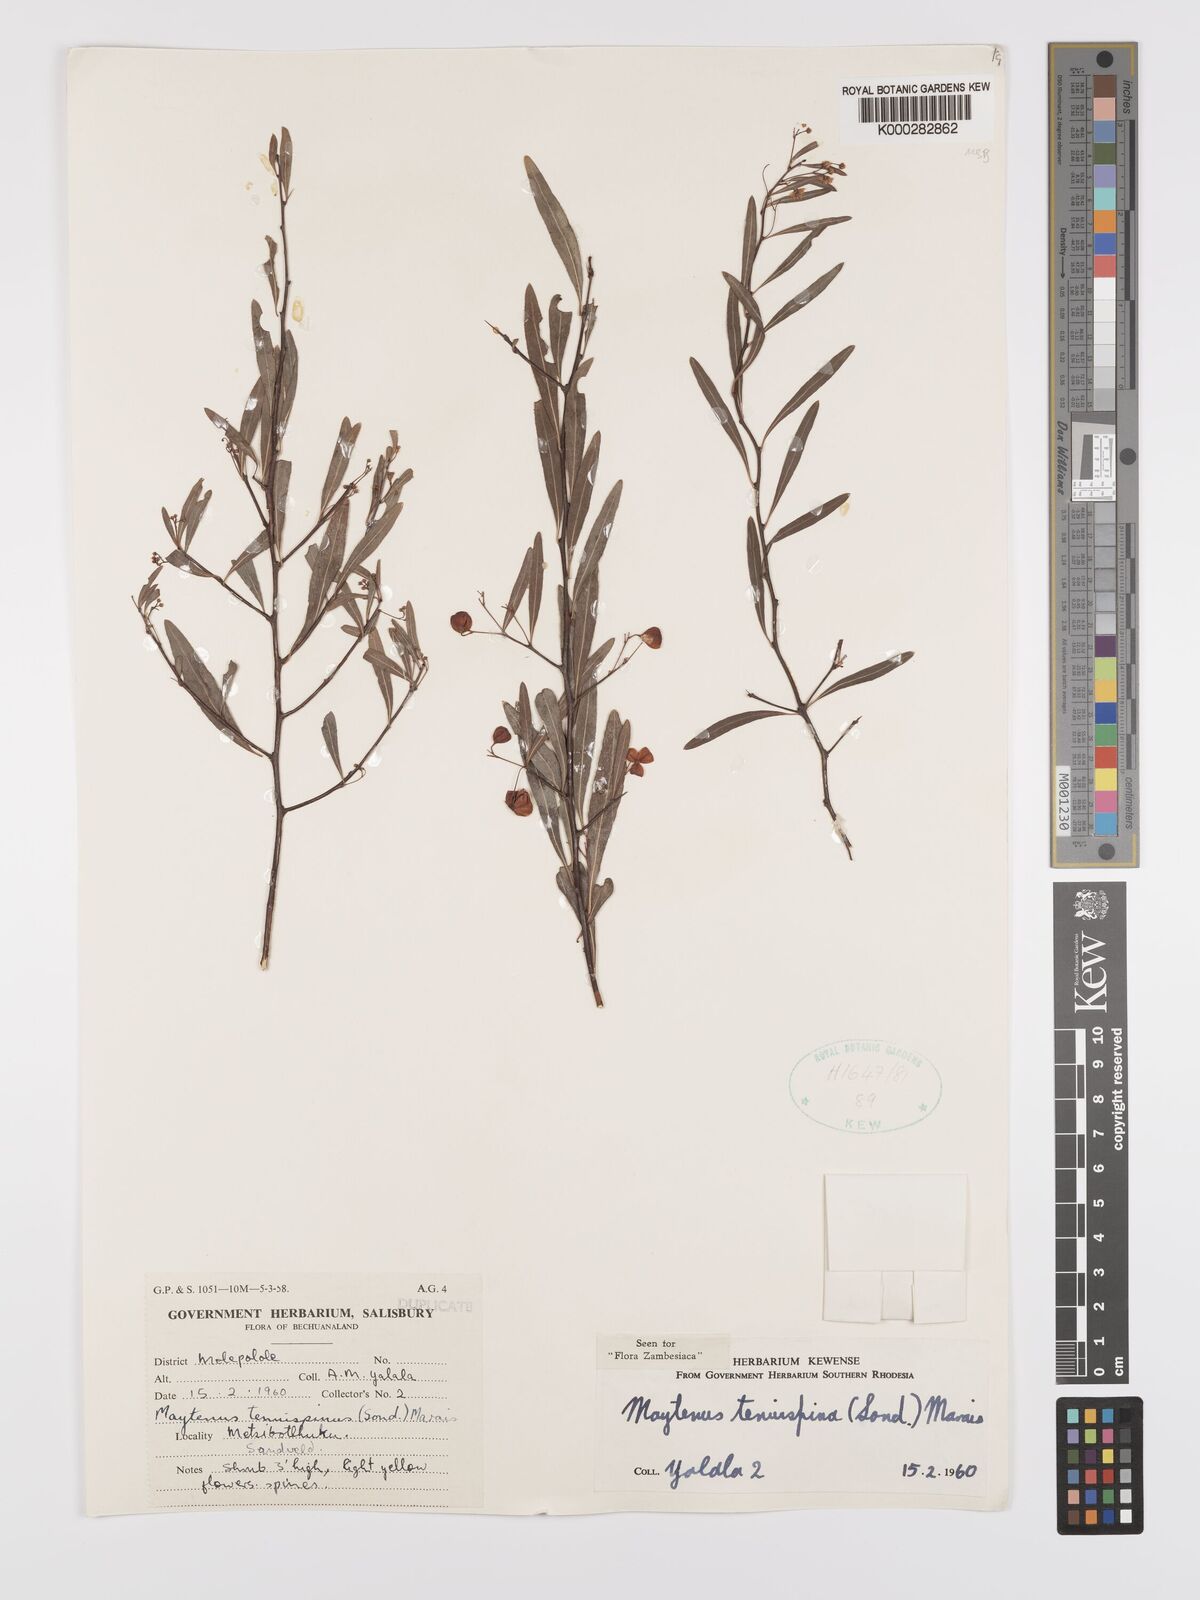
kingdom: Plantae
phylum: Tracheophyta
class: Magnoliopsida
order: Celastrales
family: Celastraceae
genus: Gymnosporia
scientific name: Gymnosporia tenuispina
